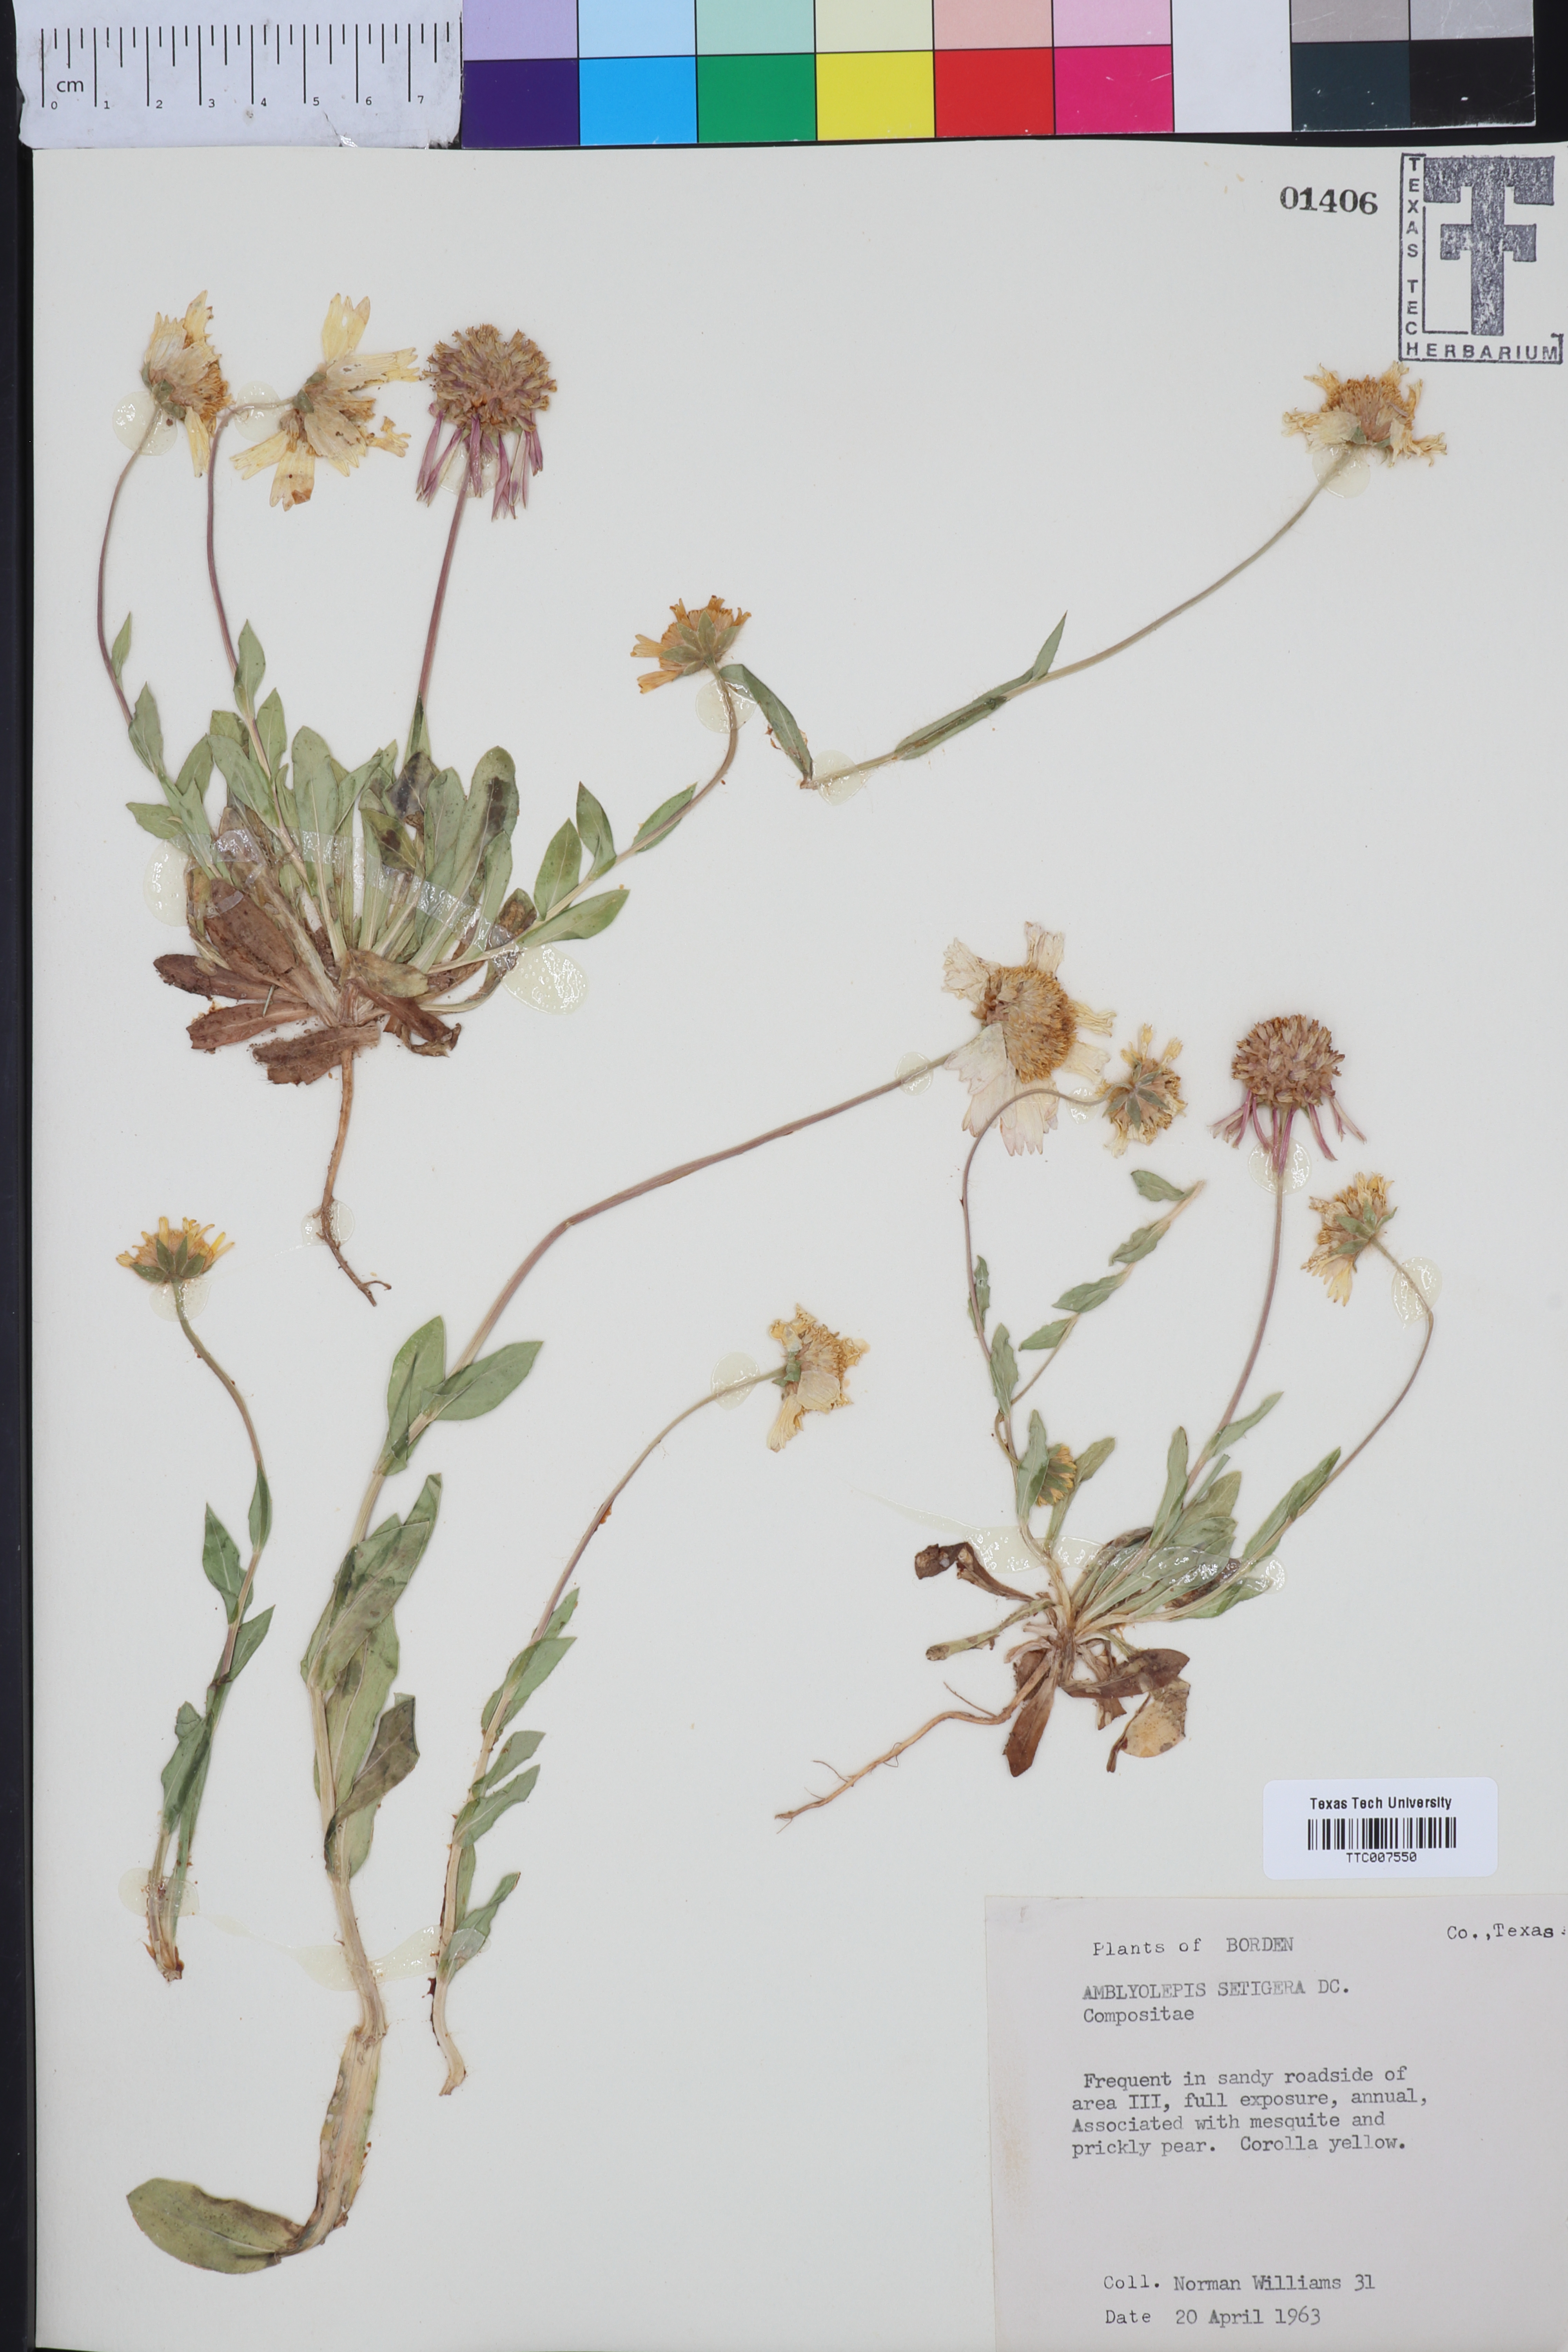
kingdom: Plantae
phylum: Tracheophyta
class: Magnoliopsida
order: Asterales
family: Asteraceae
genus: Amblyolepis
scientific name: Amblyolepis setigera
